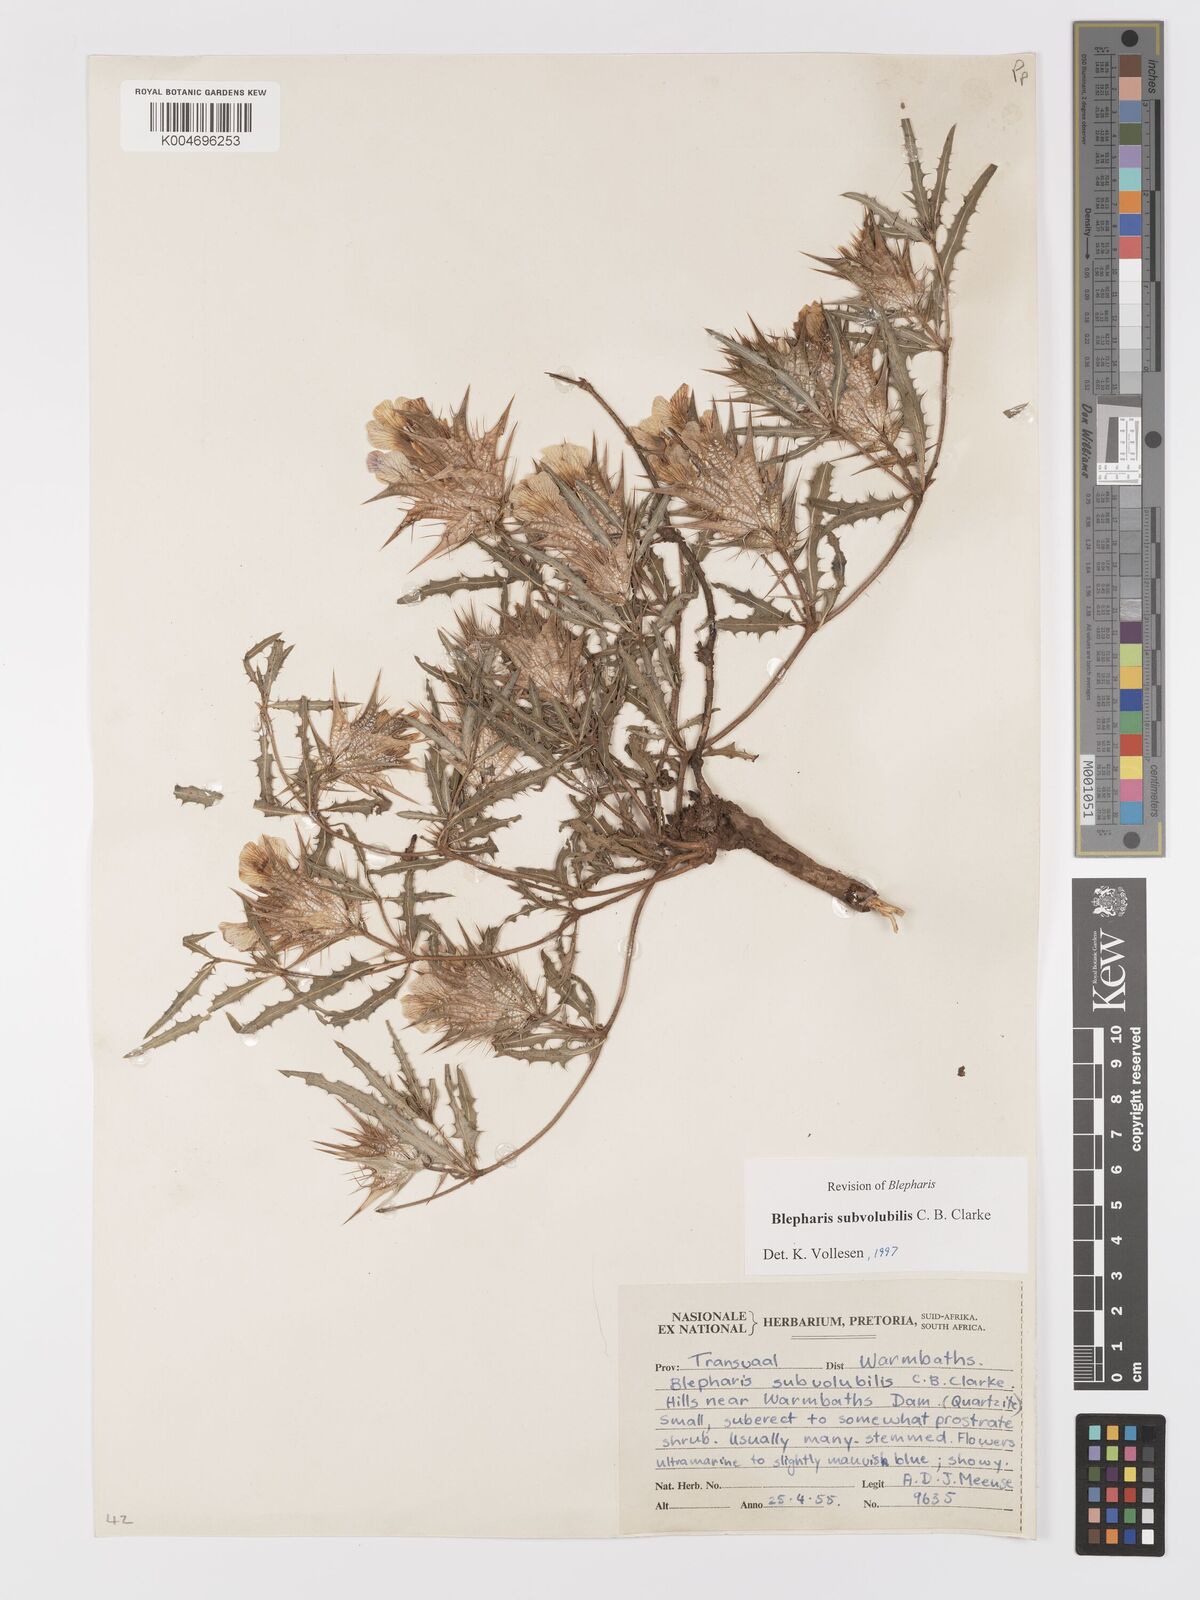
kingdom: Plantae
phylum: Tracheophyta
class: Magnoliopsida
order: Lamiales
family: Acanthaceae
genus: Blepharis
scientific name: Blepharis subvolubilis
